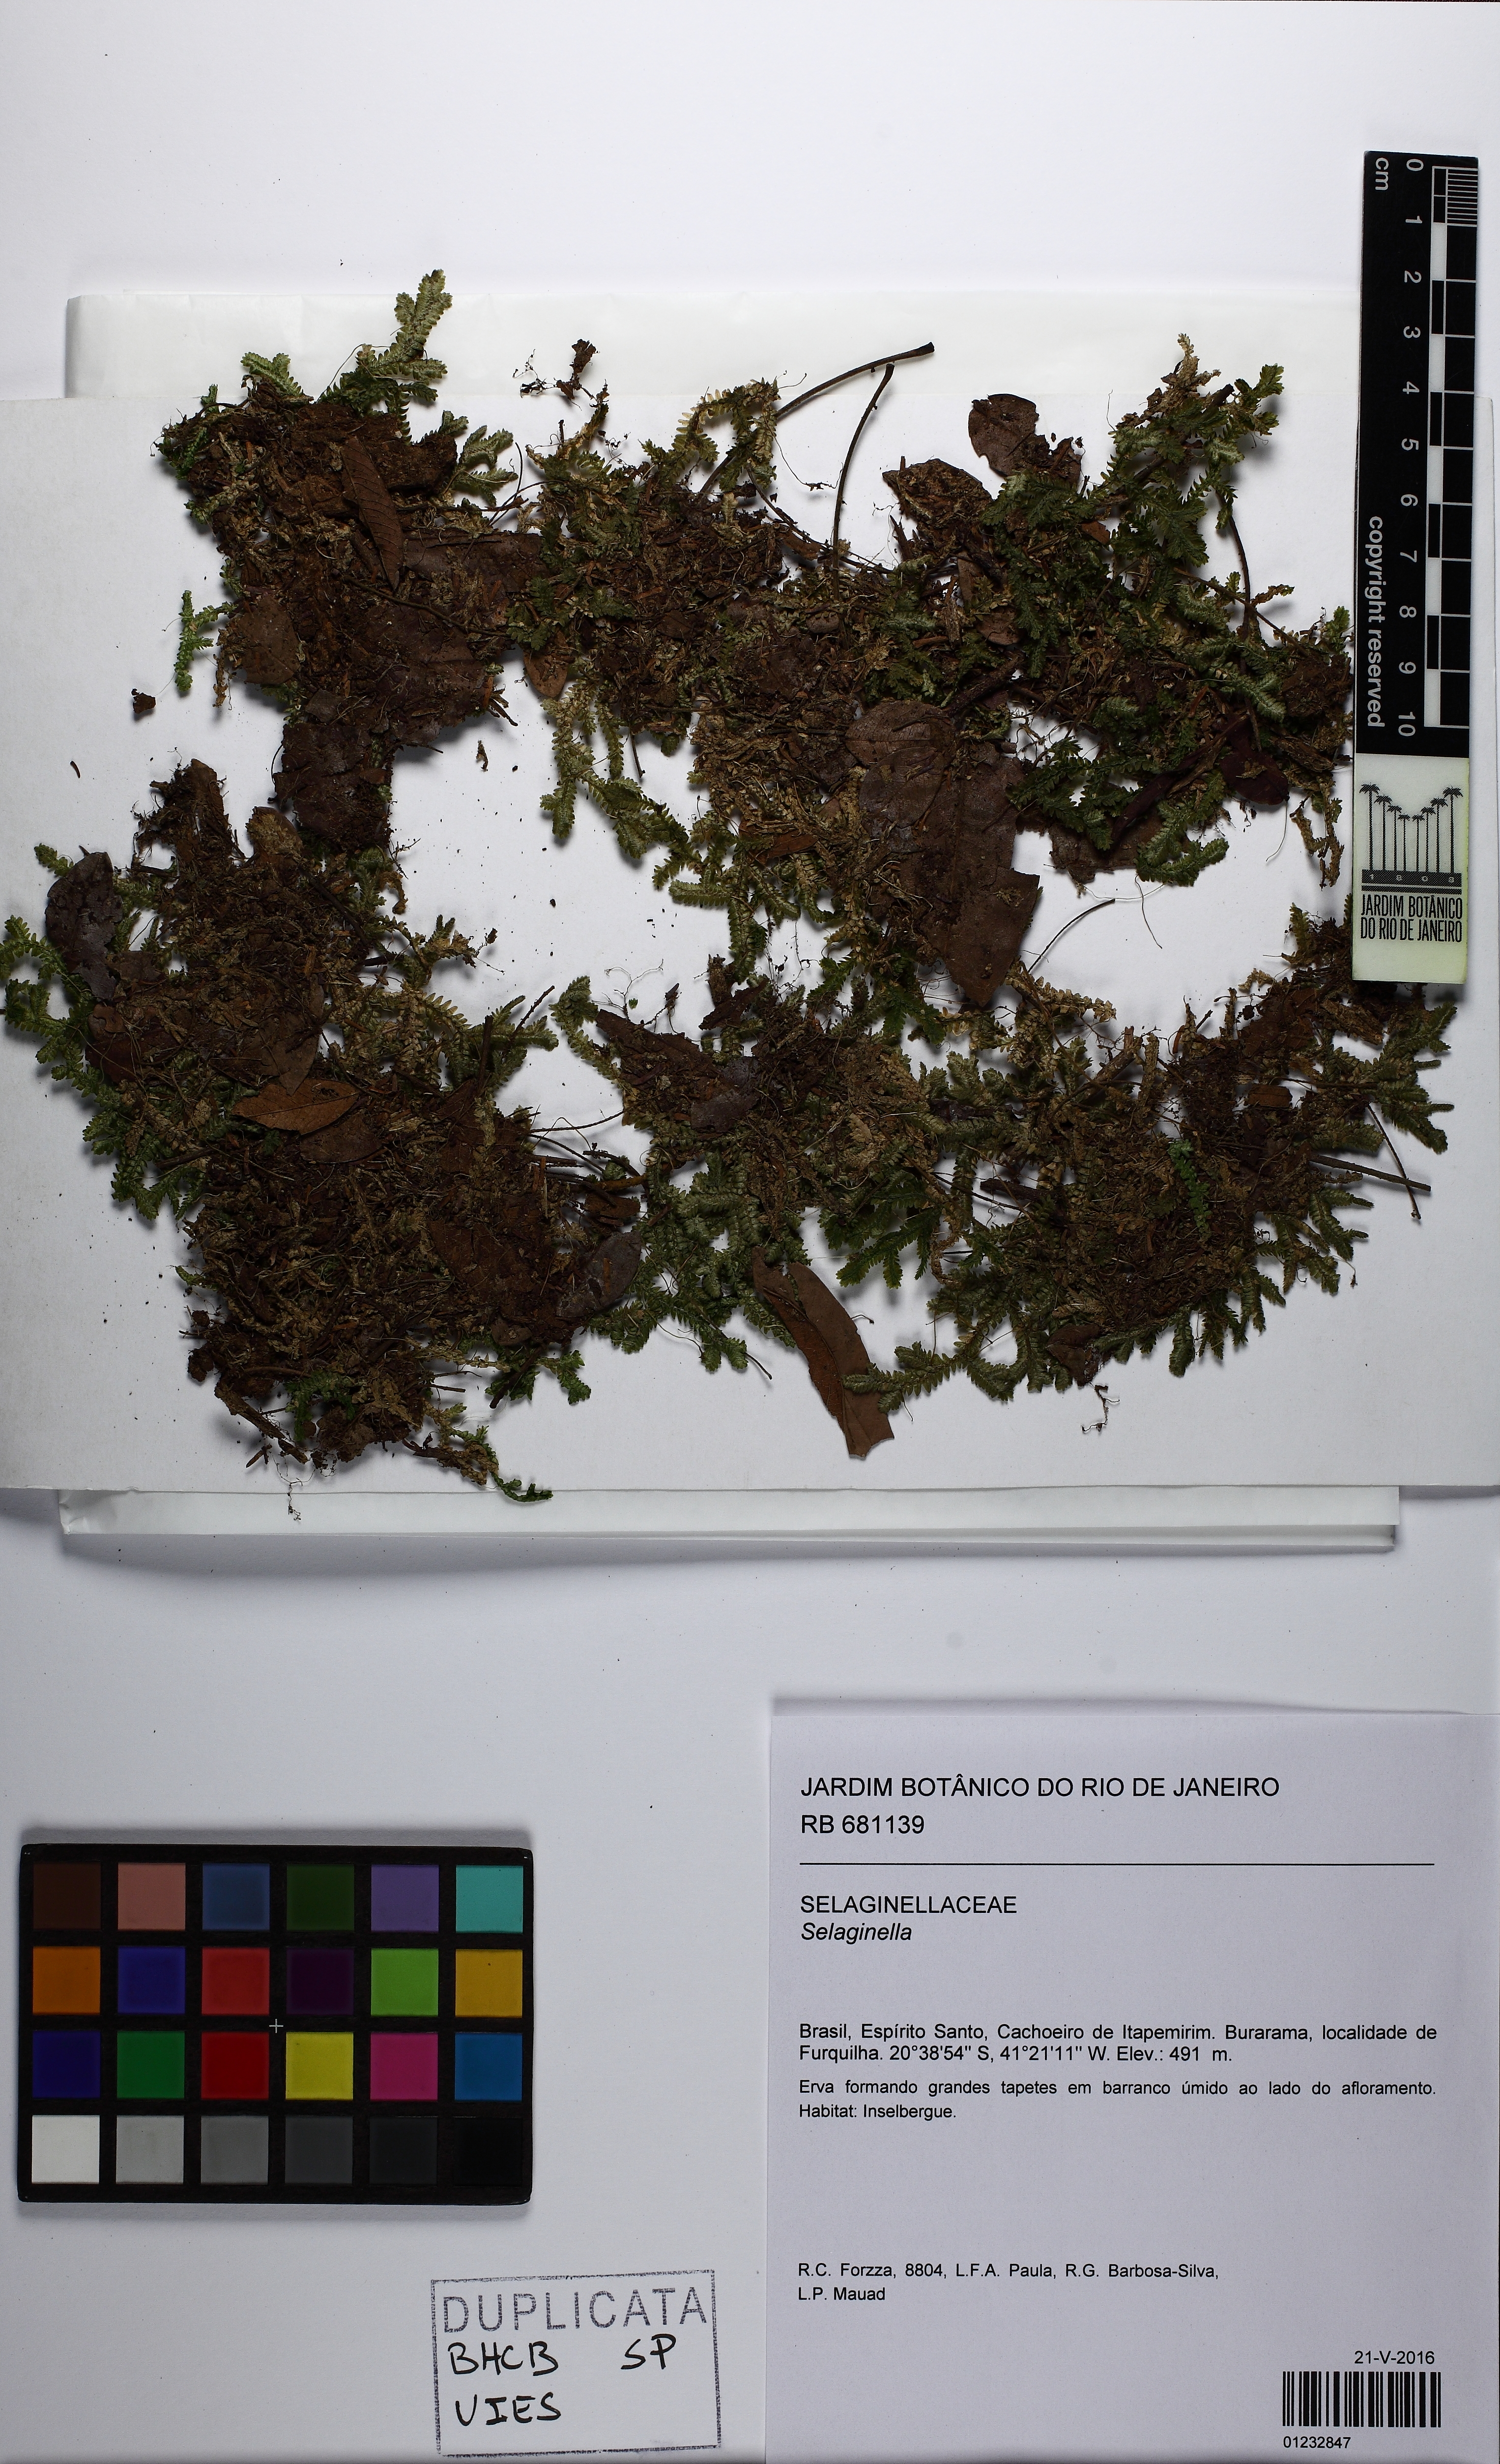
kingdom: Plantae
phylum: Tracheophyta
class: Lycopodiopsida
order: Selaginellales
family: Selaginellaceae
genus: Selaginella
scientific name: Selaginella
